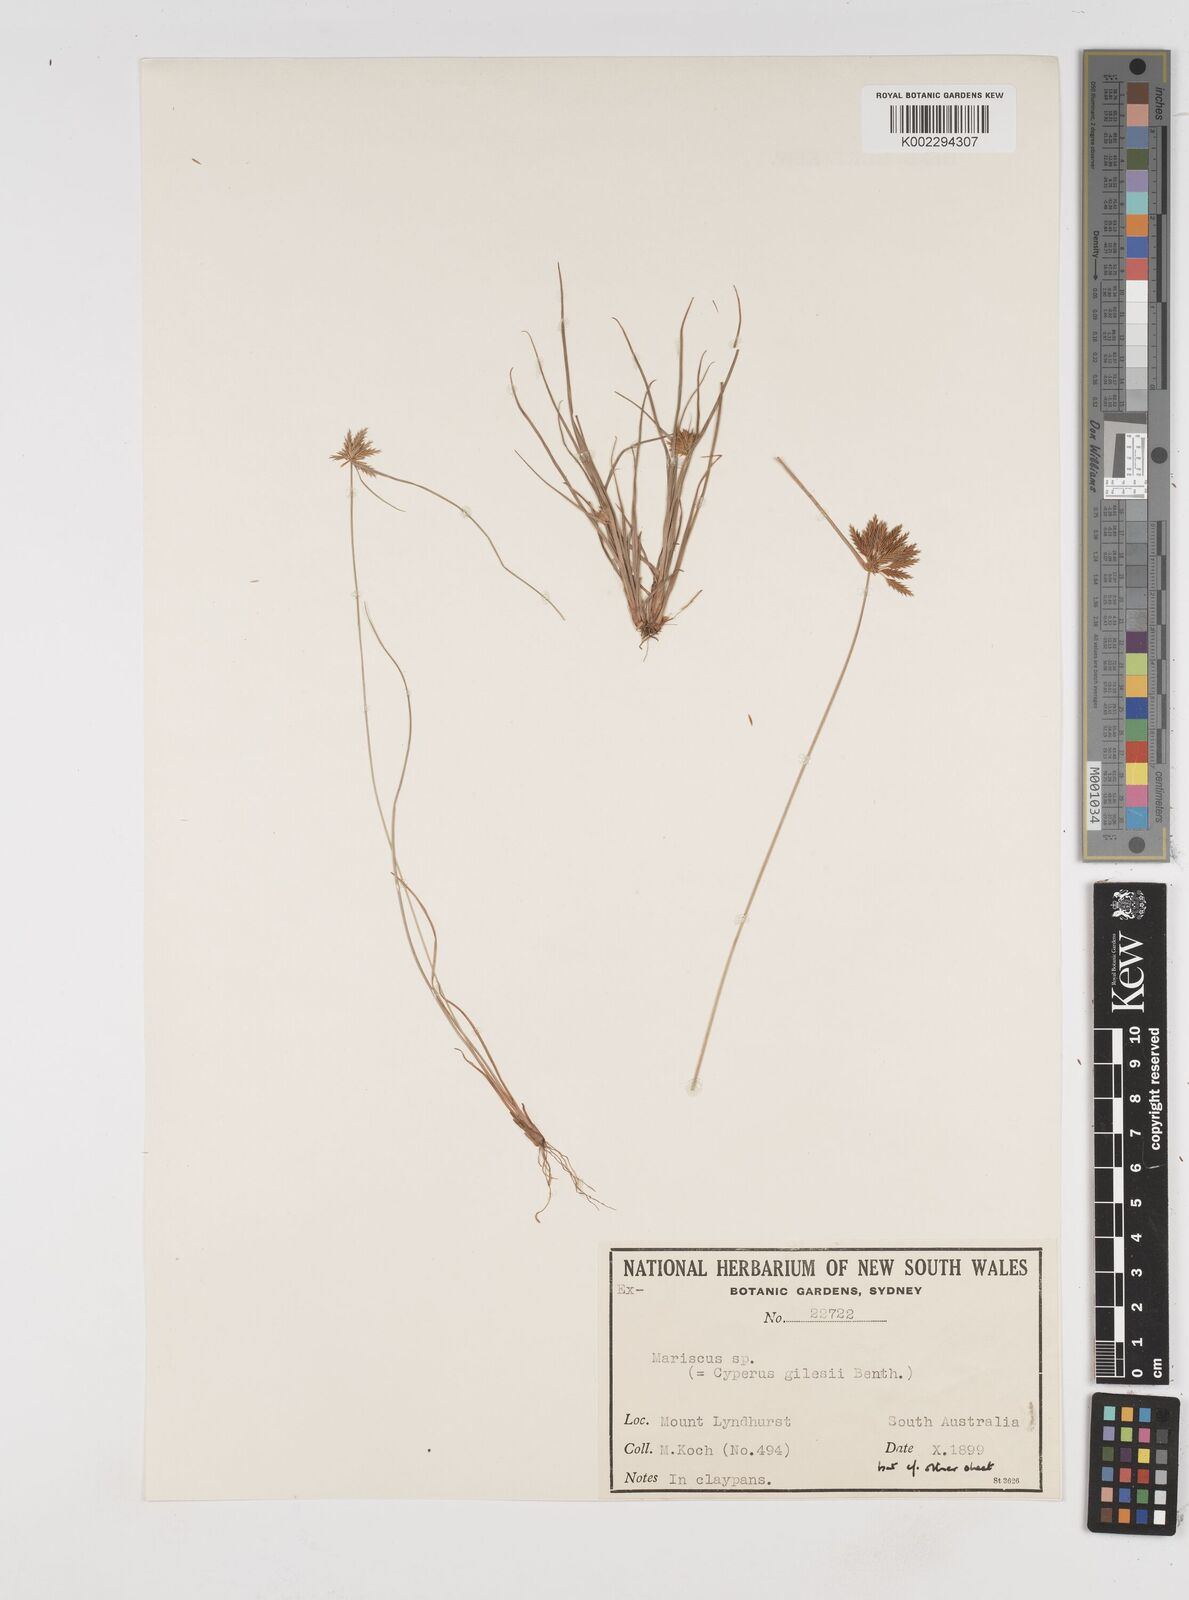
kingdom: Plantae
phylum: Tracheophyta
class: Liliopsida
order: Poales
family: Cyperaceae
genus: Cyperus
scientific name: Cyperus gilesii
